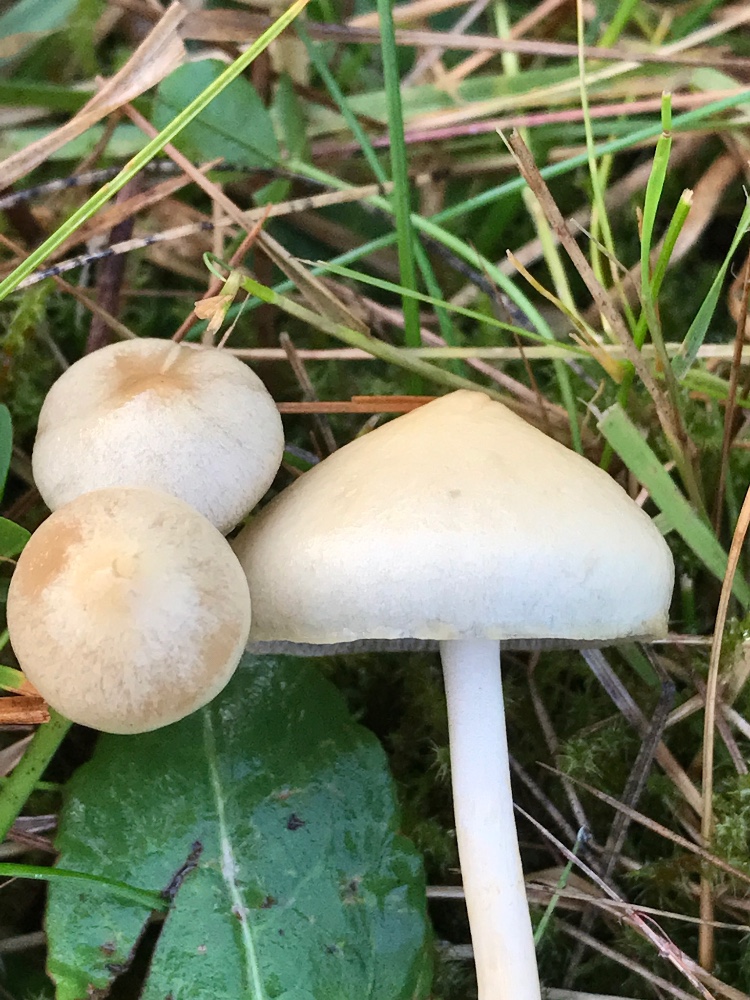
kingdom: Fungi
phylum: Basidiomycota
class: Agaricomycetes
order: Agaricales
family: Strophariaceae
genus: Protostropharia
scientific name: Protostropharia semiglobata
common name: halvkugleformet bredblad
